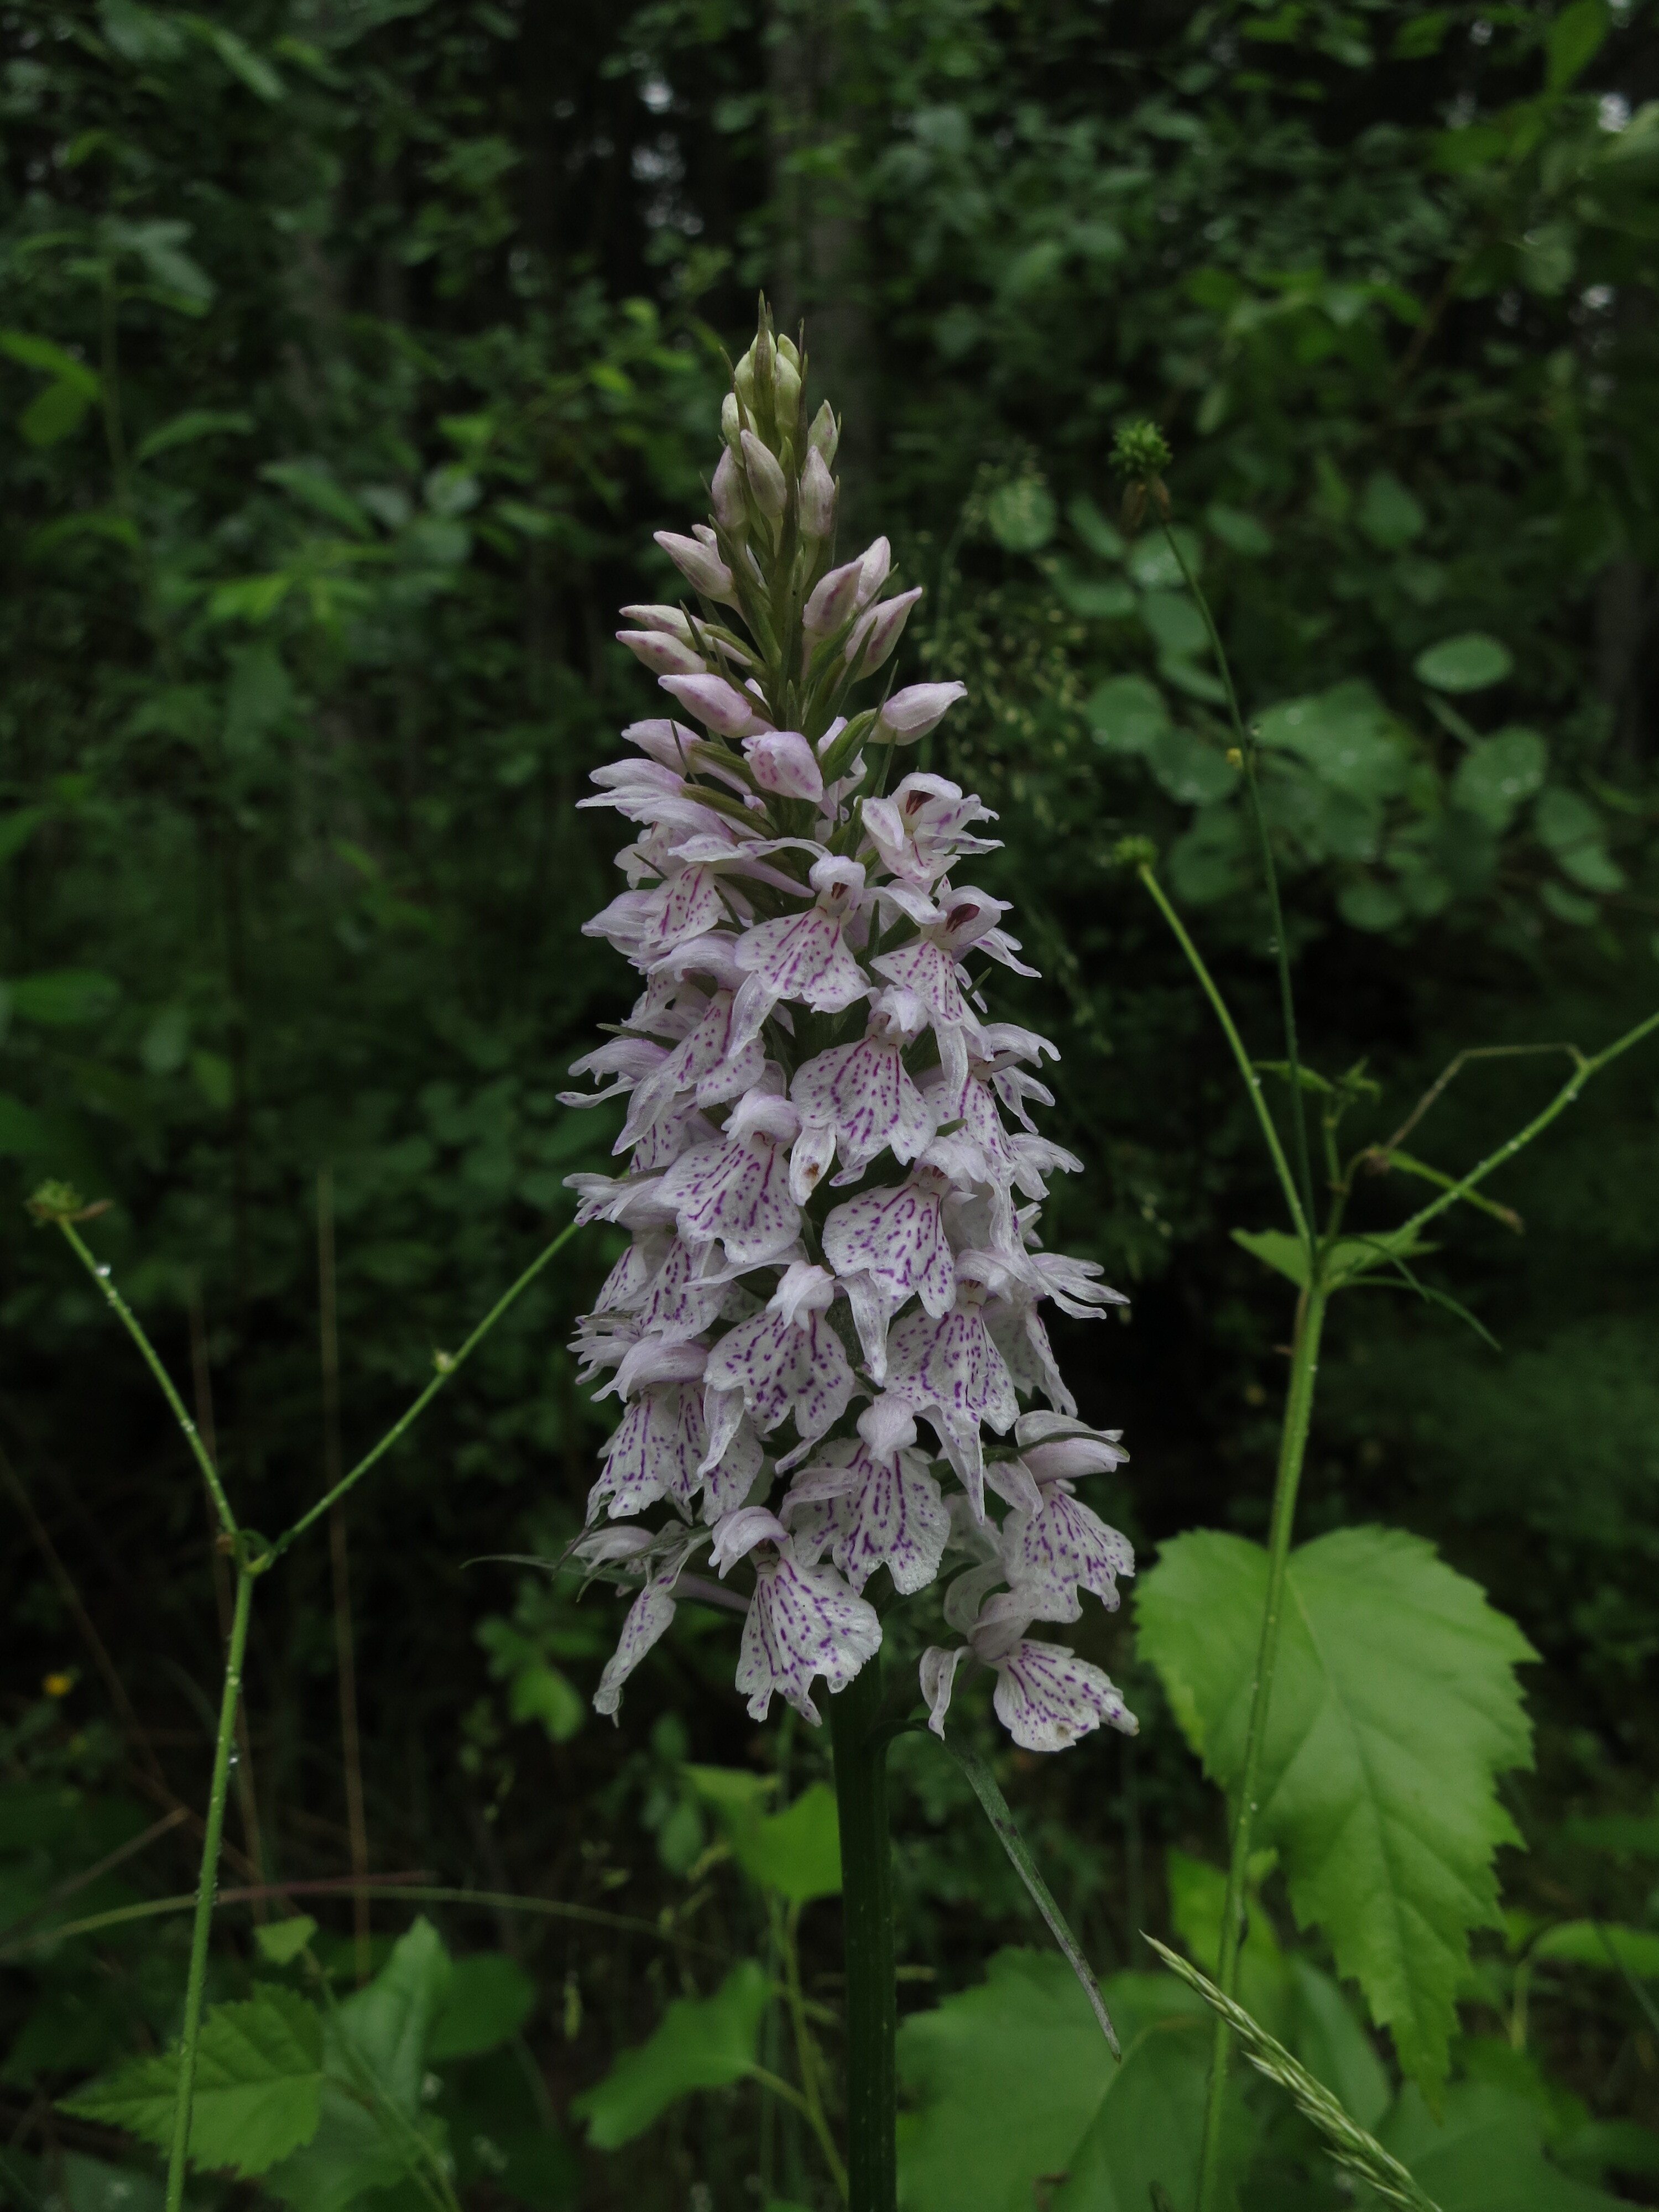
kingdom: Plantae
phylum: Tracheophyta
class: Liliopsida
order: Asparagales
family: Orchidaceae
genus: Dactylorhiza
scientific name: Dactylorhiza
